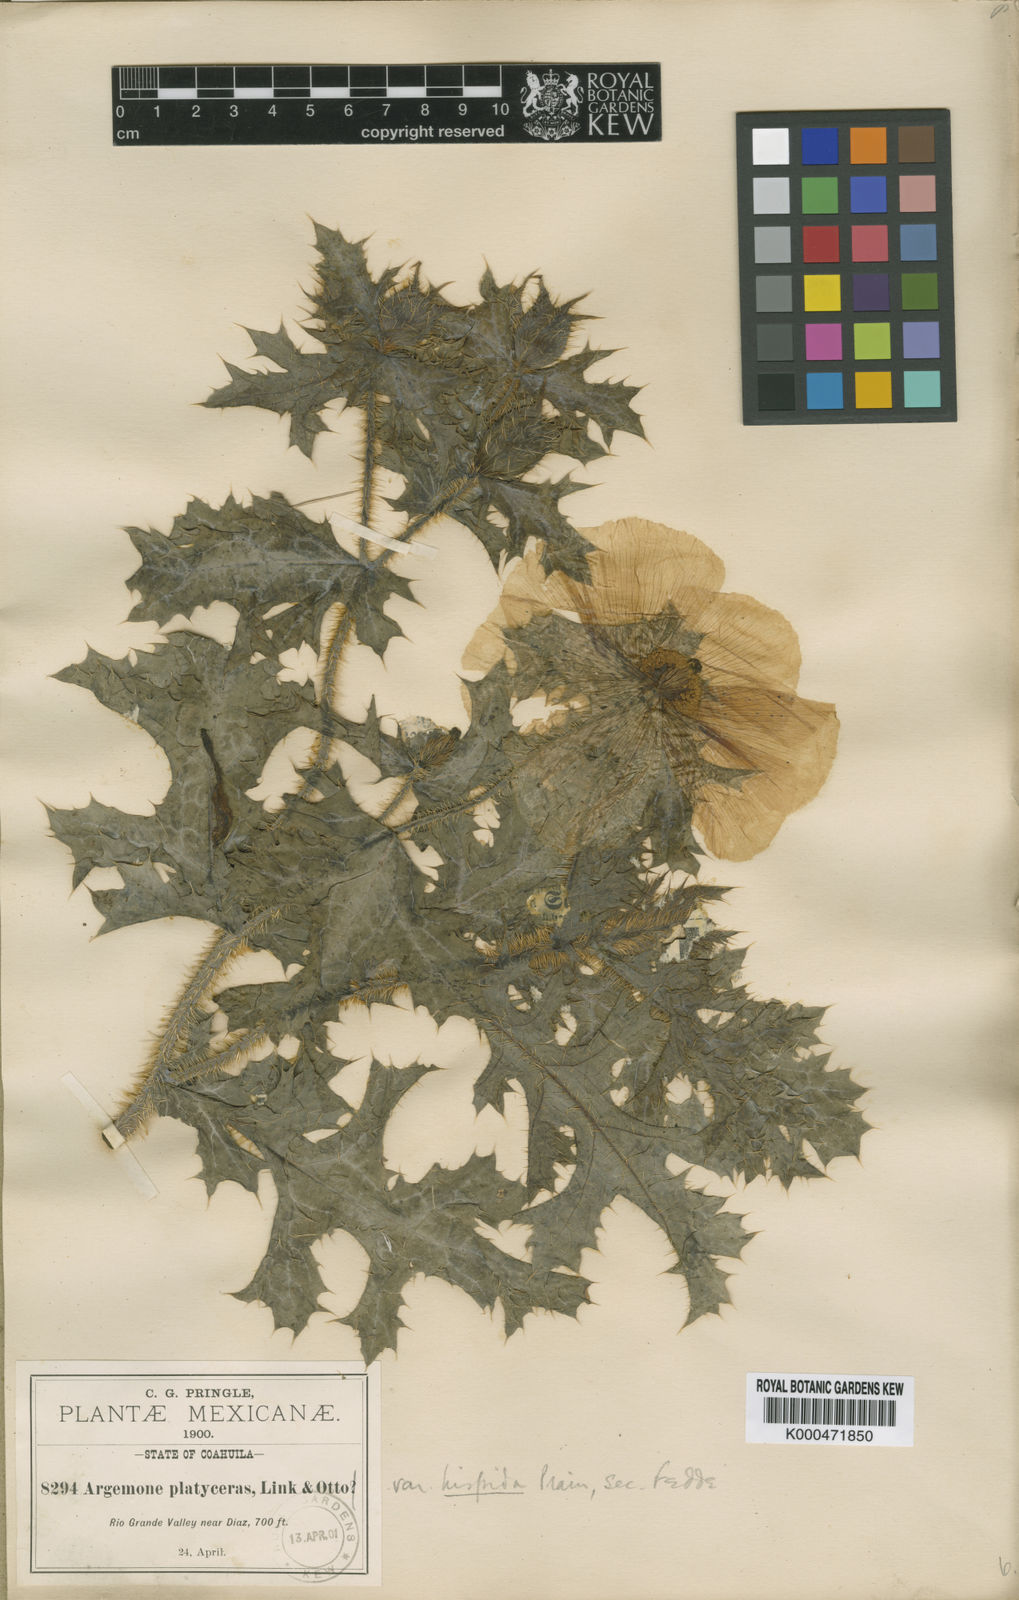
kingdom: Plantae
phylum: Tracheophyta
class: Magnoliopsida
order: Ranunculales
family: Papaveraceae
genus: Argemone
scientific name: Argemone hispida
